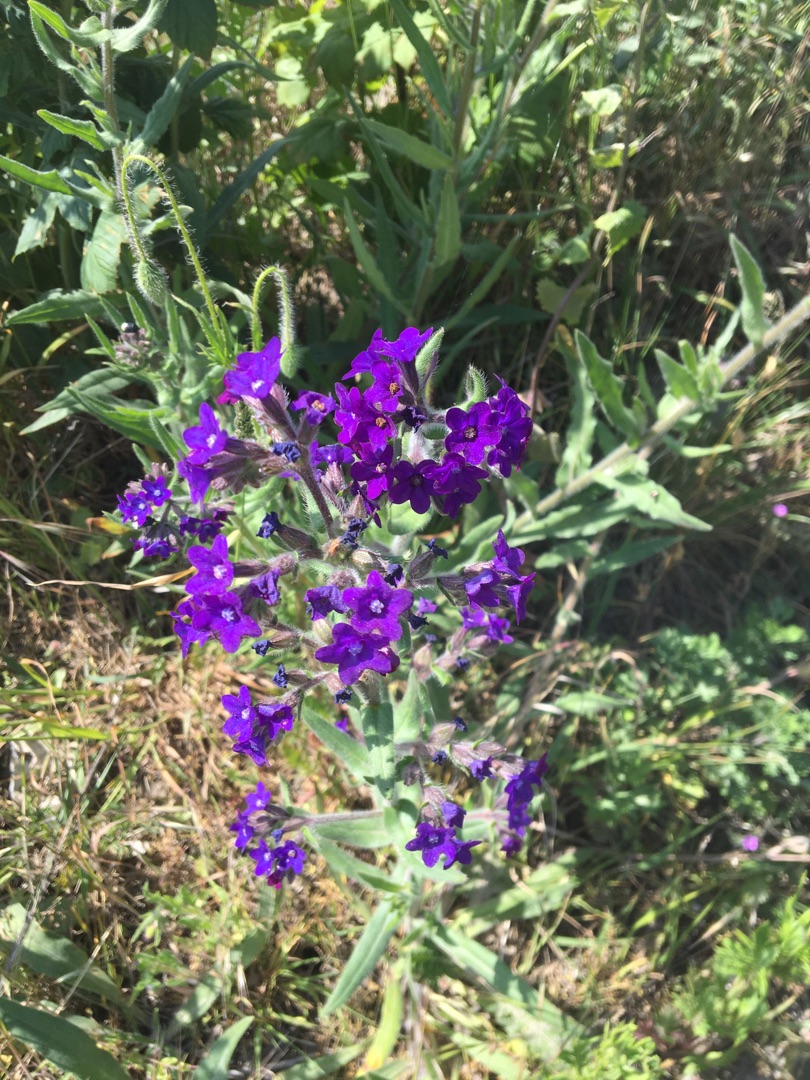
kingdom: Plantae
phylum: Tracheophyta
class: Magnoliopsida
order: Boraginales
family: Boraginaceae
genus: Anchusa
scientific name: Anchusa officinalis
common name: Læge-oksetunge
